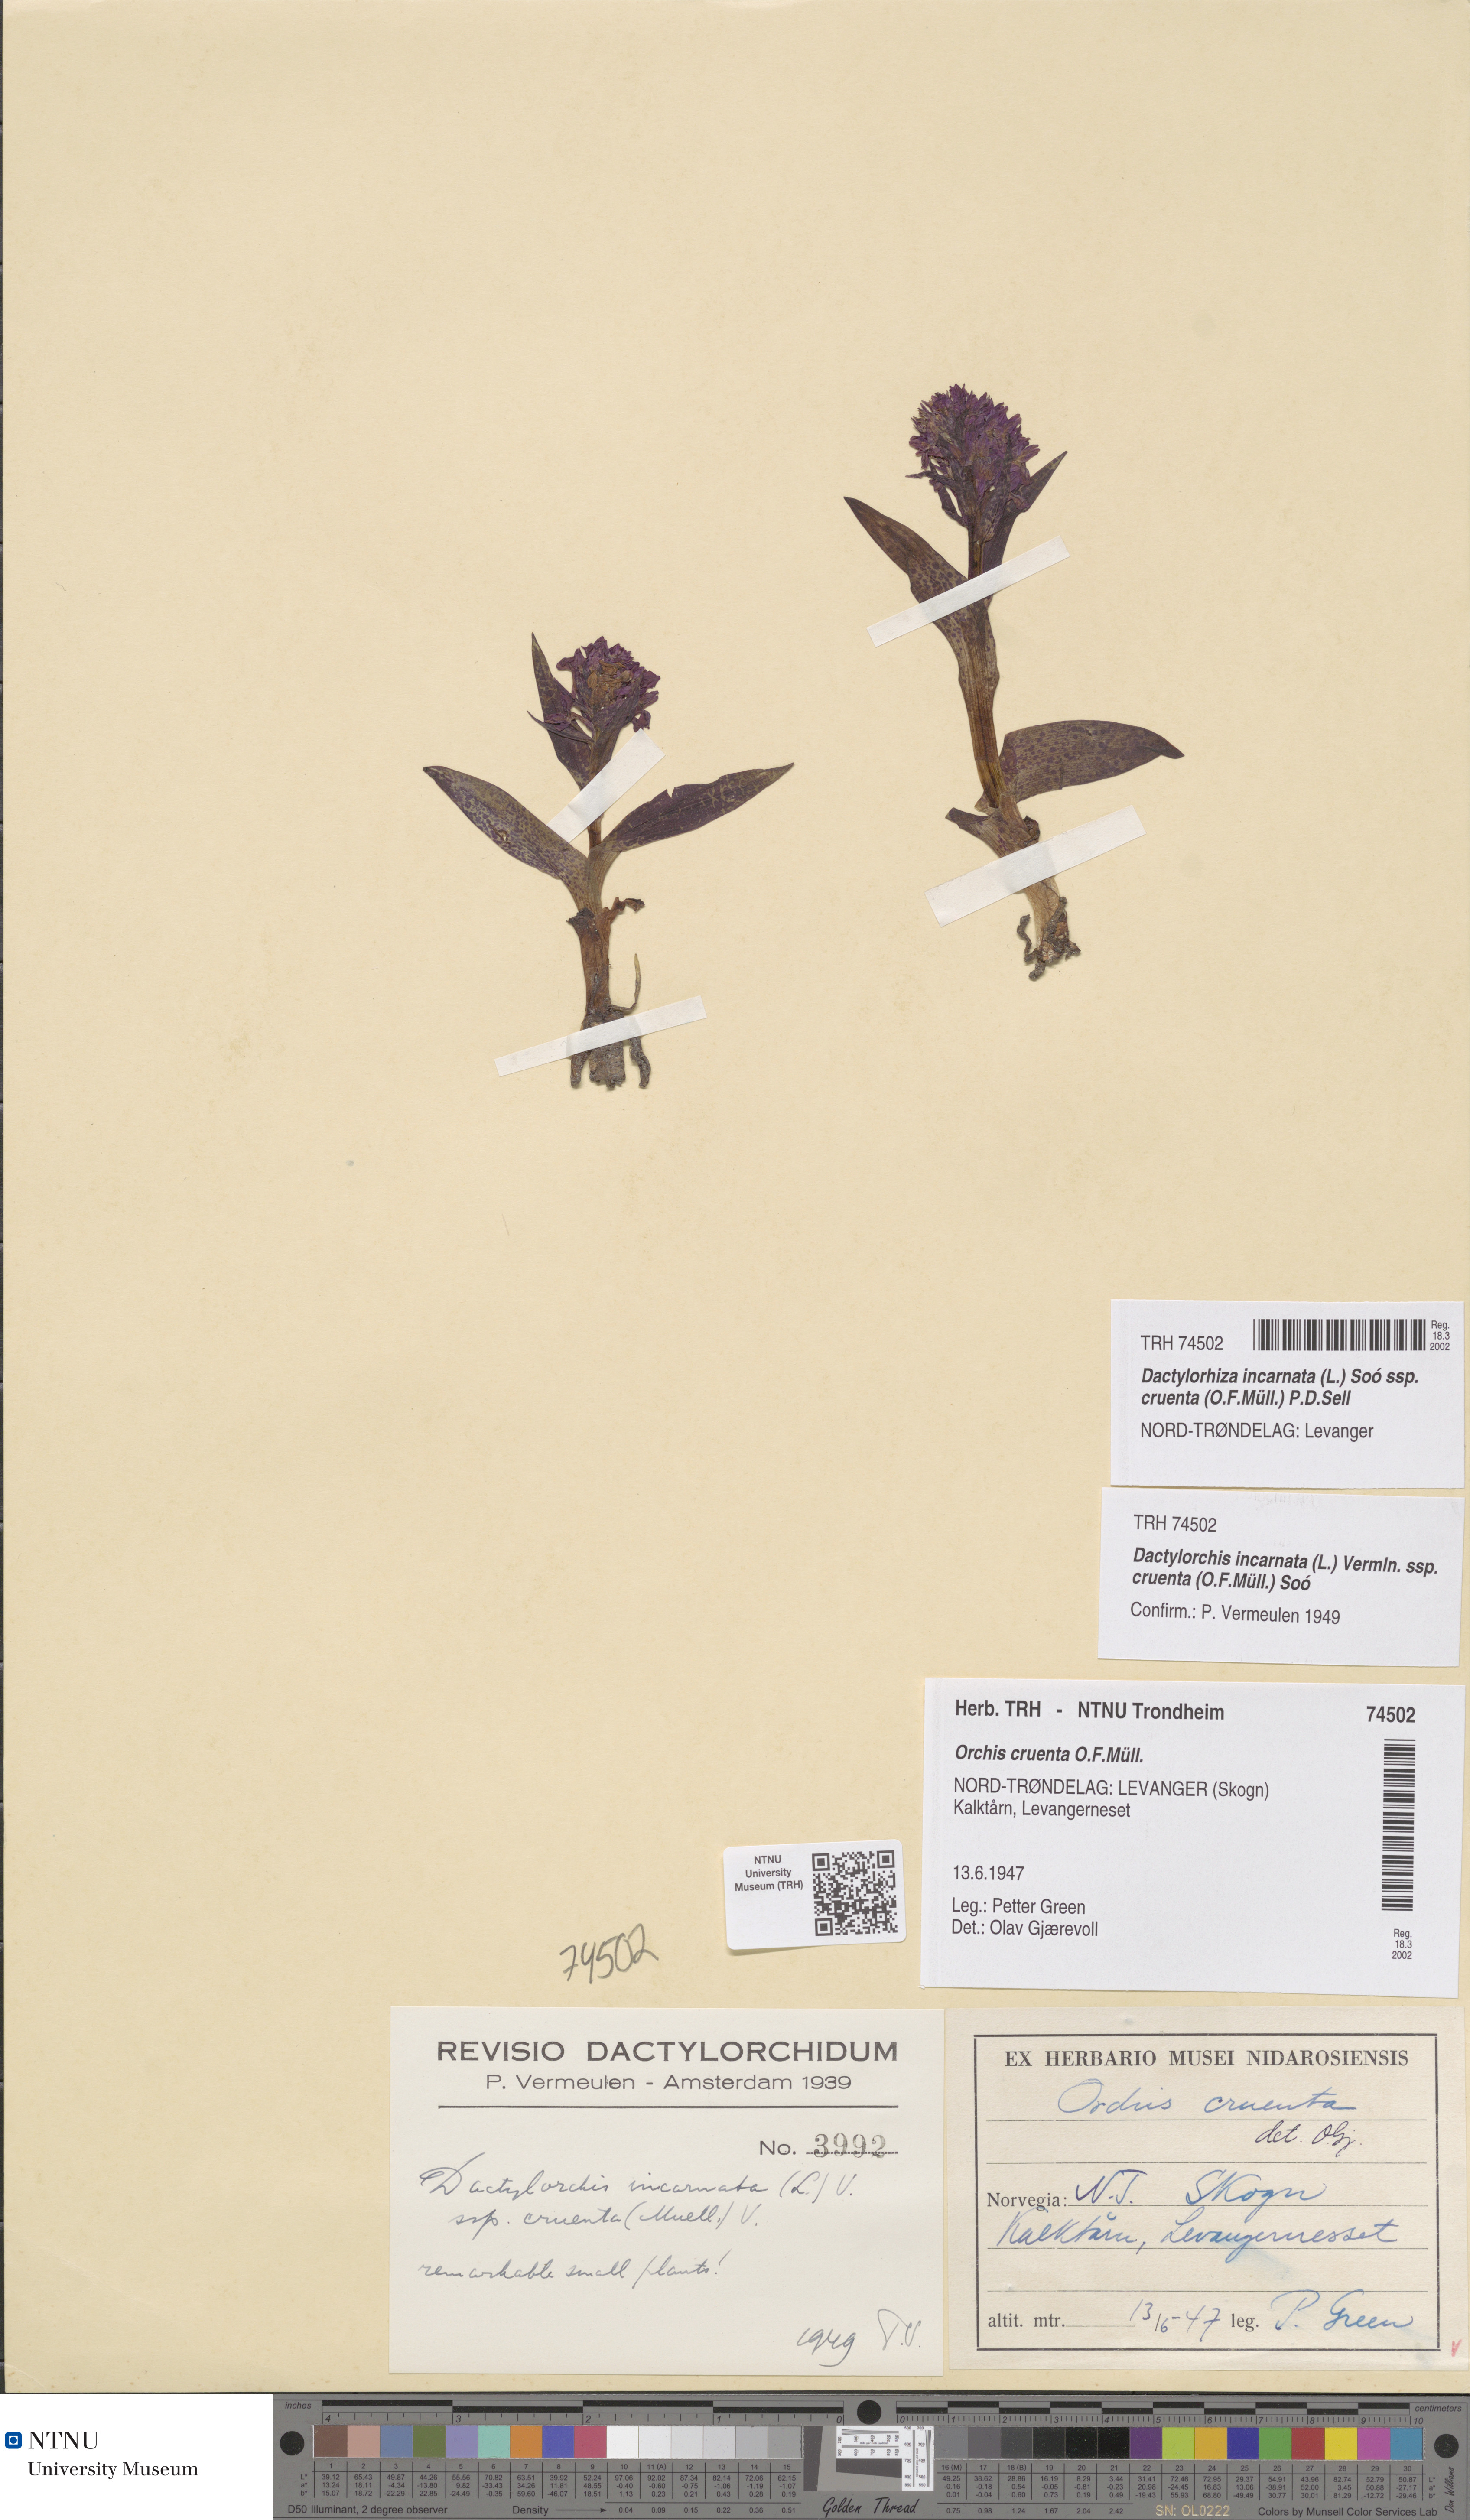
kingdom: Plantae
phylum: Tracheophyta
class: Liliopsida
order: Asparagales
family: Orchidaceae
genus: Dactylorhiza
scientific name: Dactylorhiza incarnata
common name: Early marsh-orchid
